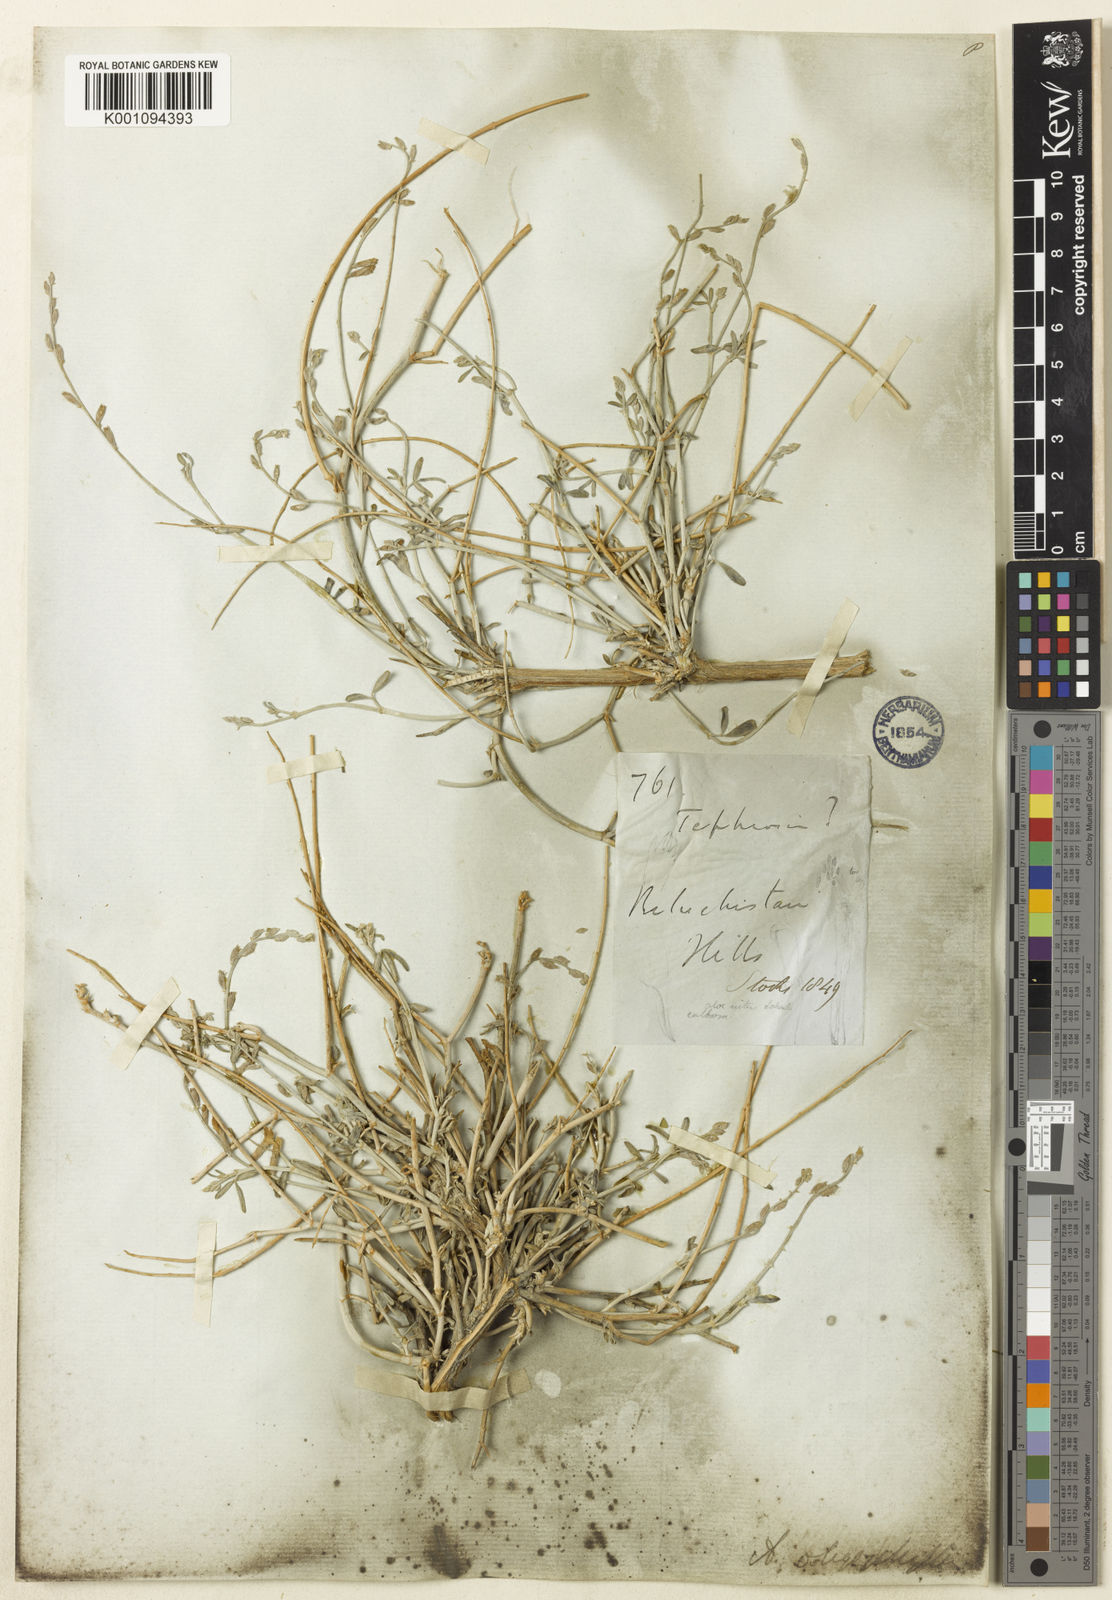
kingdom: Plantae
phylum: Tracheophyta
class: Magnoliopsida
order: Fabales
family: Fabaceae
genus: Astragalus
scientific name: Astragalus
